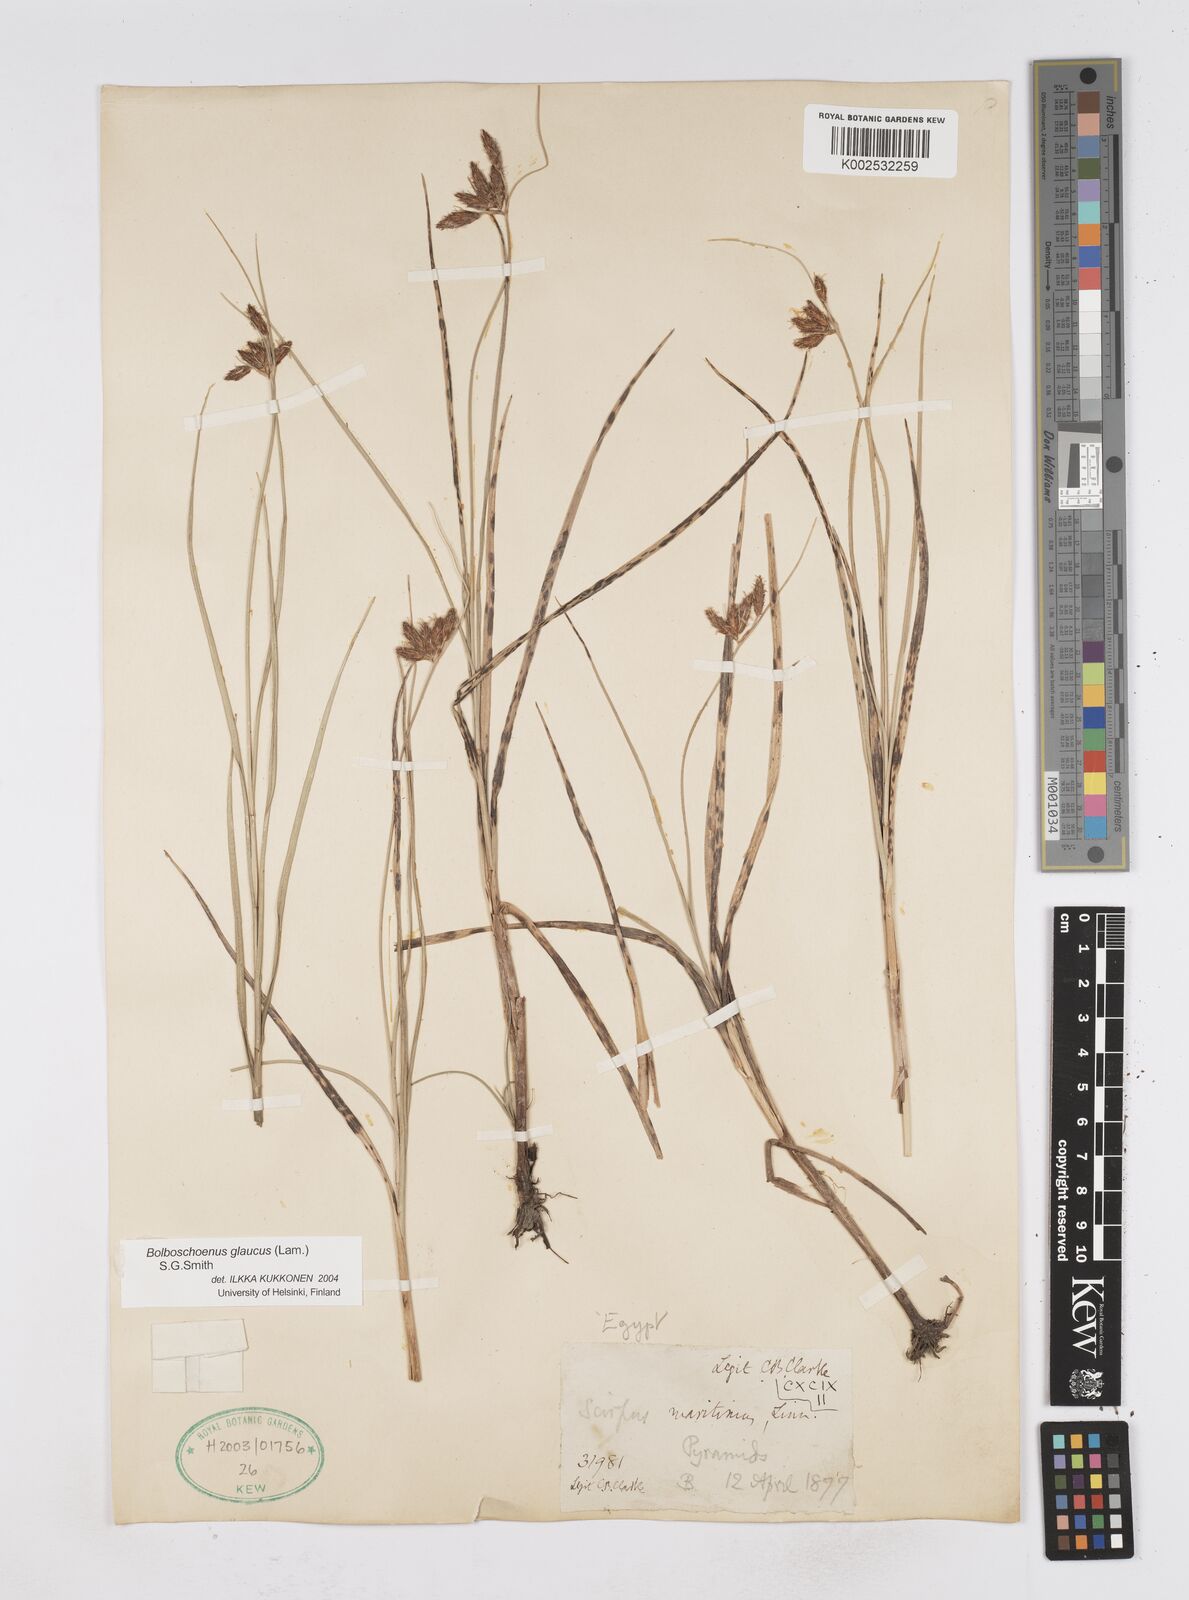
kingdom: Plantae
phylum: Tracheophyta
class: Liliopsida
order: Poales
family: Cyperaceae
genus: Bolboschoenus
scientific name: Bolboschoenus maritimus
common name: Sea club-rush
